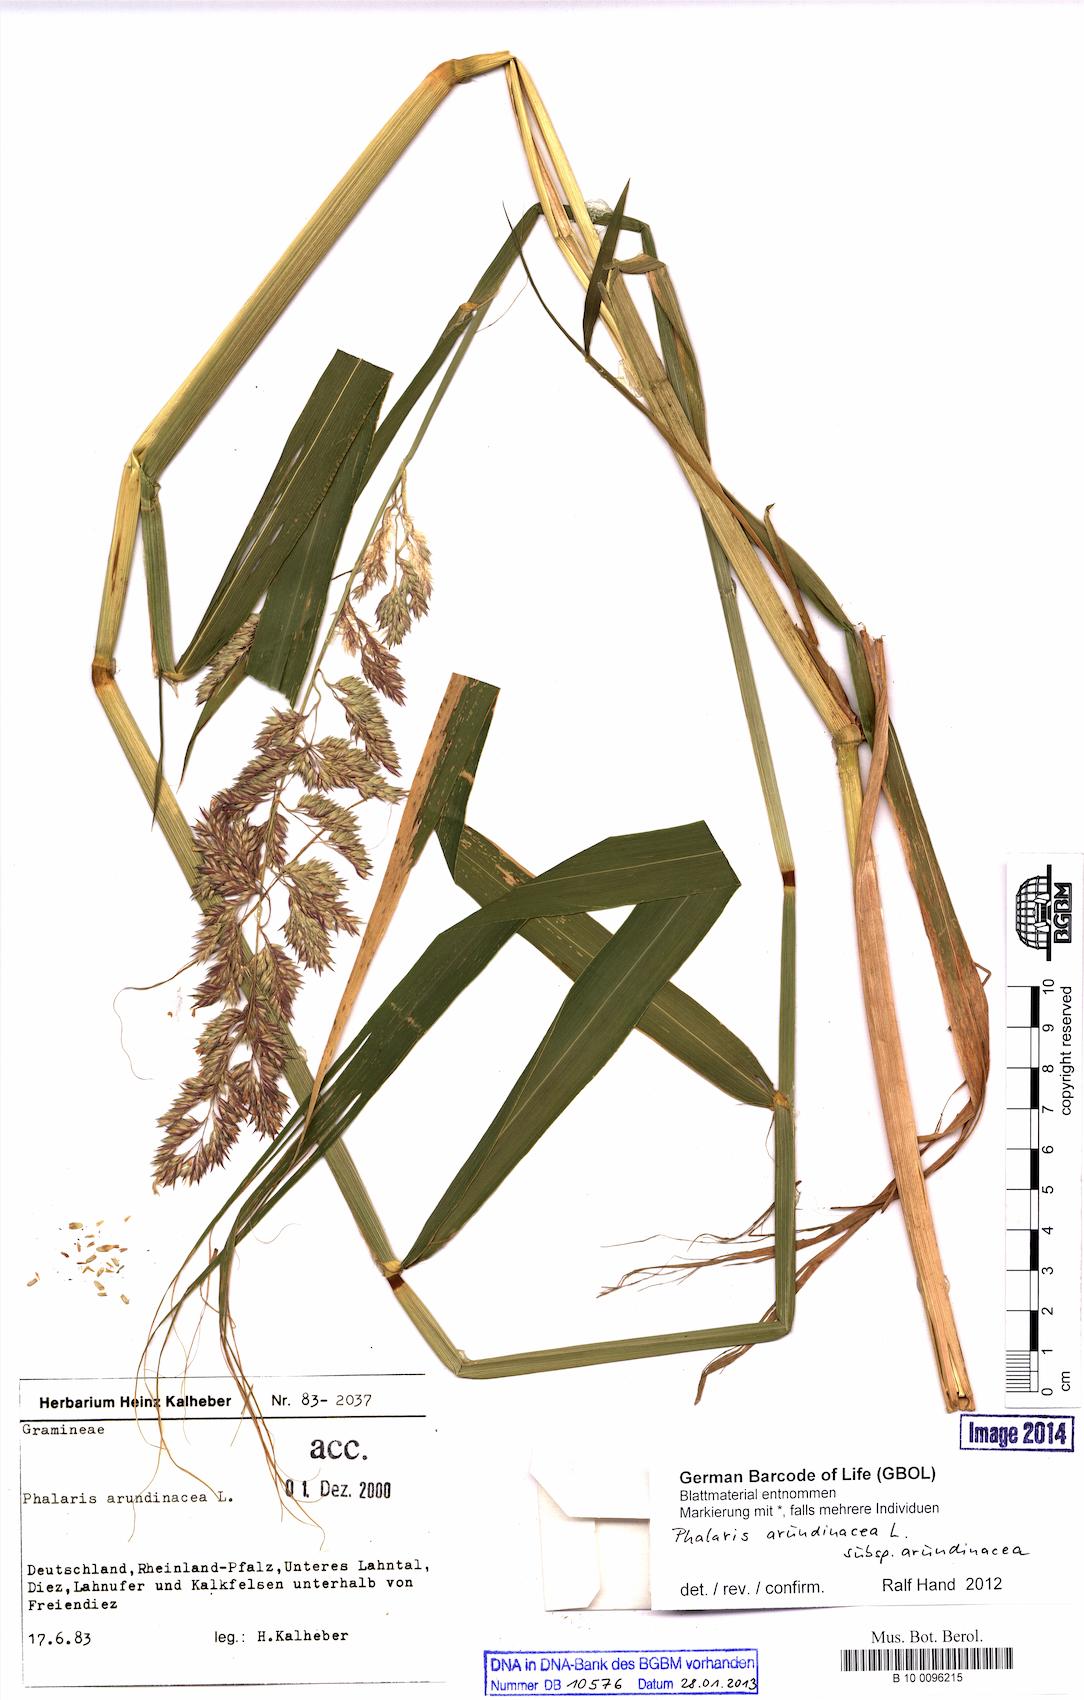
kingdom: Plantae
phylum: Tracheophyta
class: Liliopsida
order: Poales
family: Poaceae
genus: Phalaris
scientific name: Phalaris arundinacea
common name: Reed canary-grass
